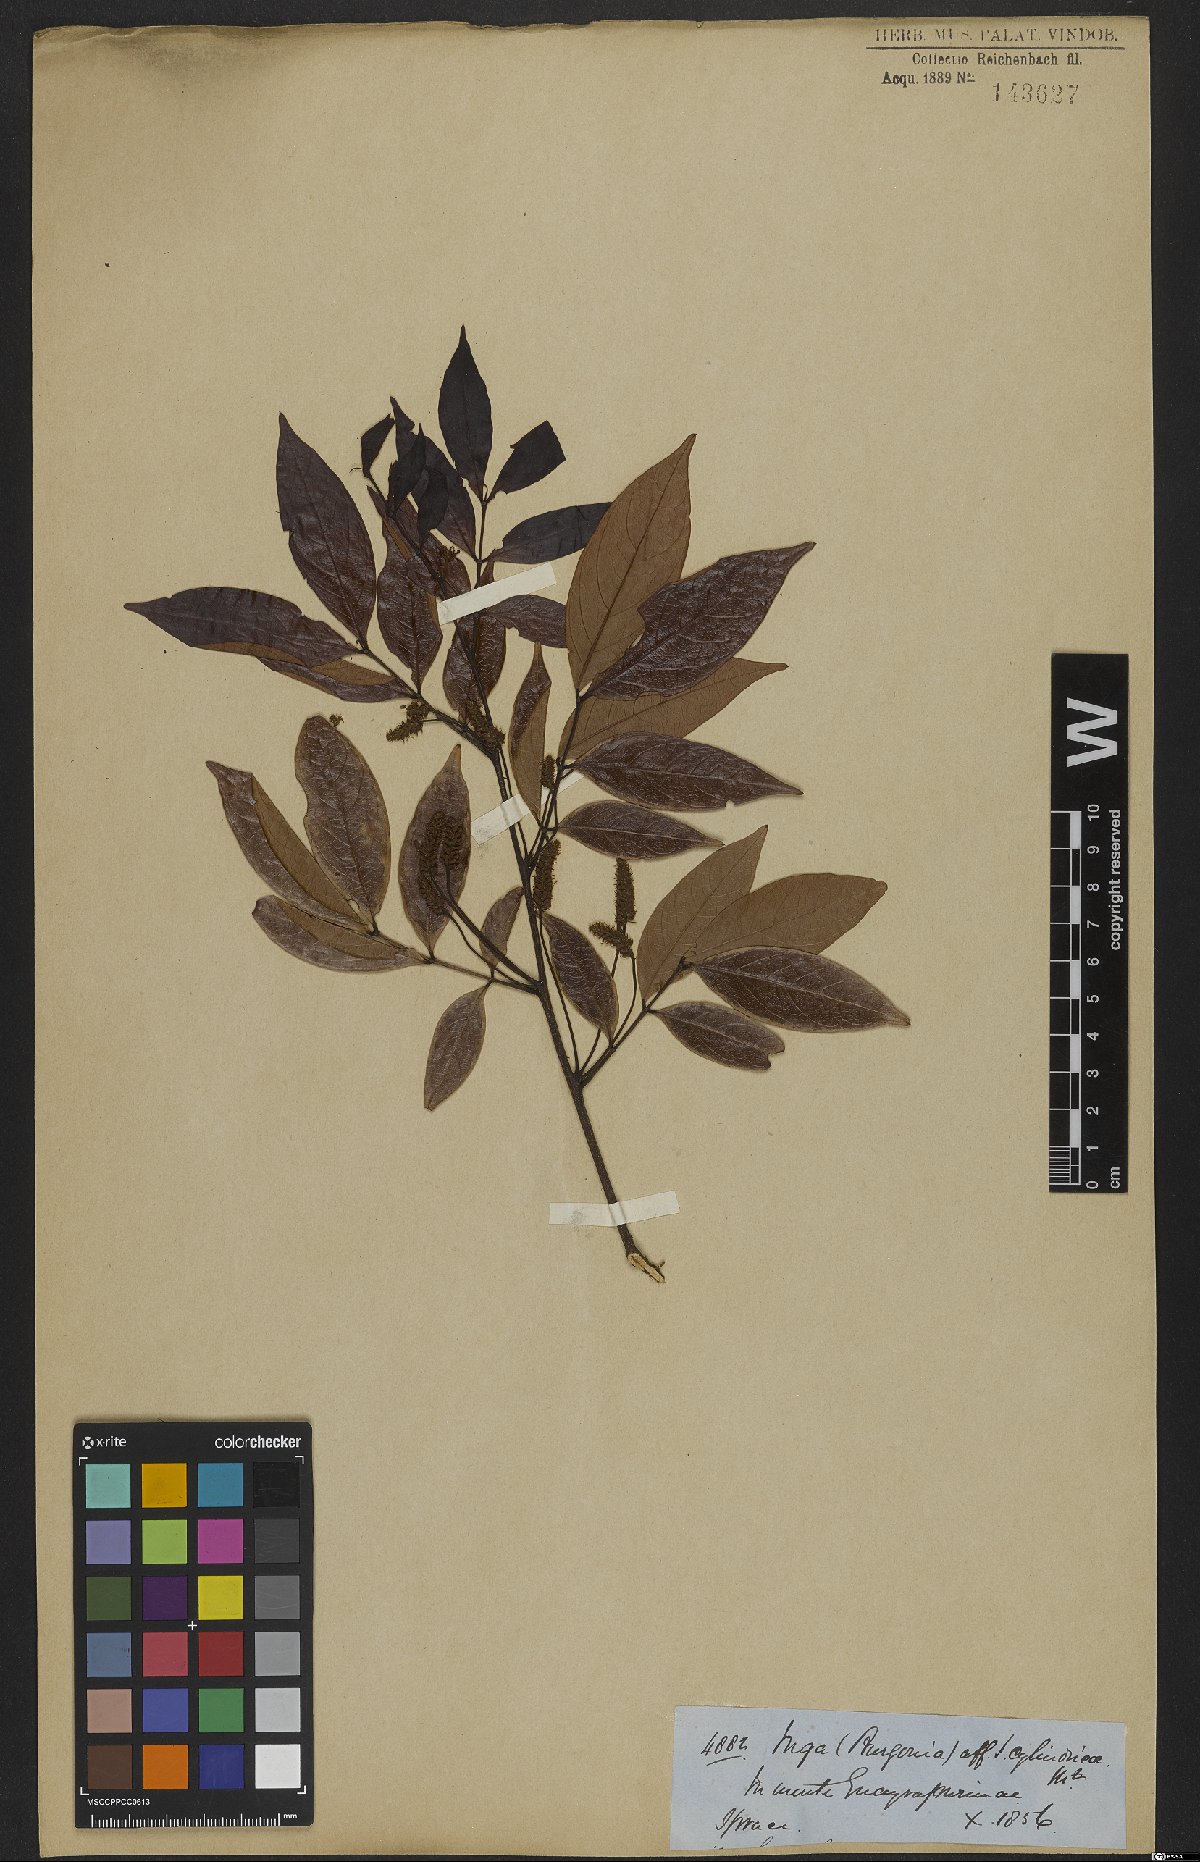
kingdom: Plantae
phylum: Tracheophyta
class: Magnoliopsida
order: Fabales
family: Fabaceae
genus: Inga
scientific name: Inga cylindrica
